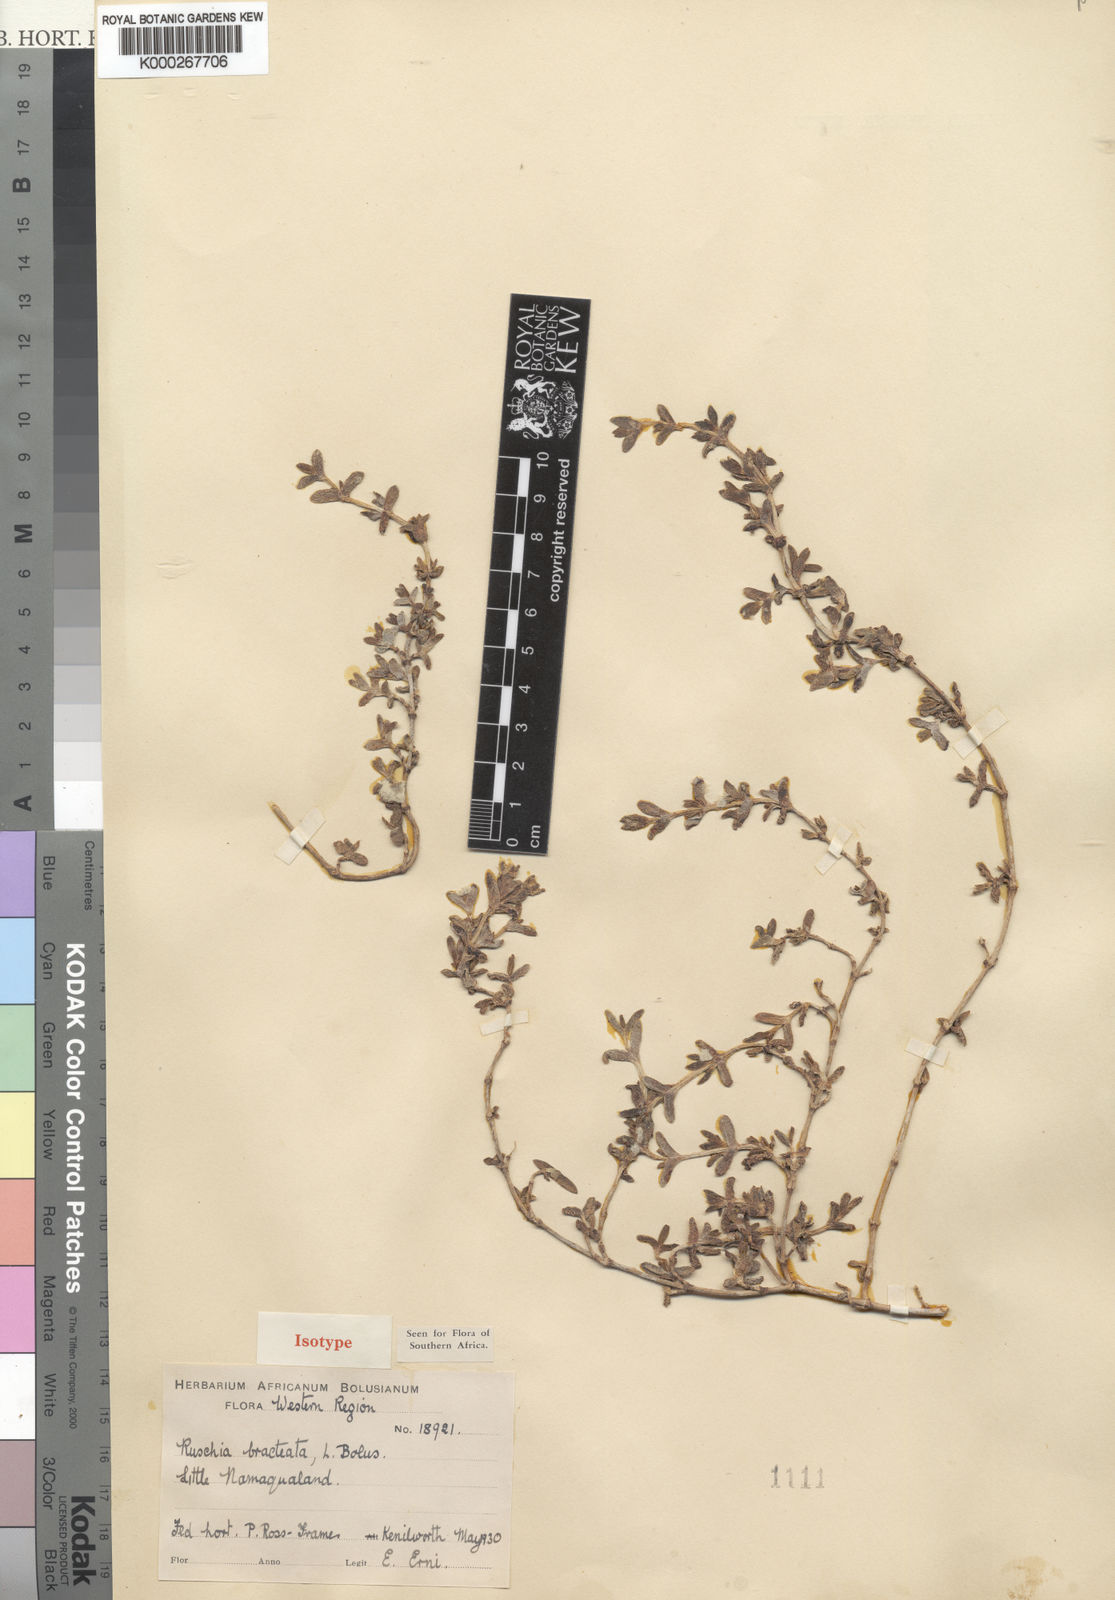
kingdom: Plantae
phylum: Tracheophyta
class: Magnoliopsida
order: Caryophyllales
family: Aizoaceae
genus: Antimima
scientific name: Antimima bracteata
